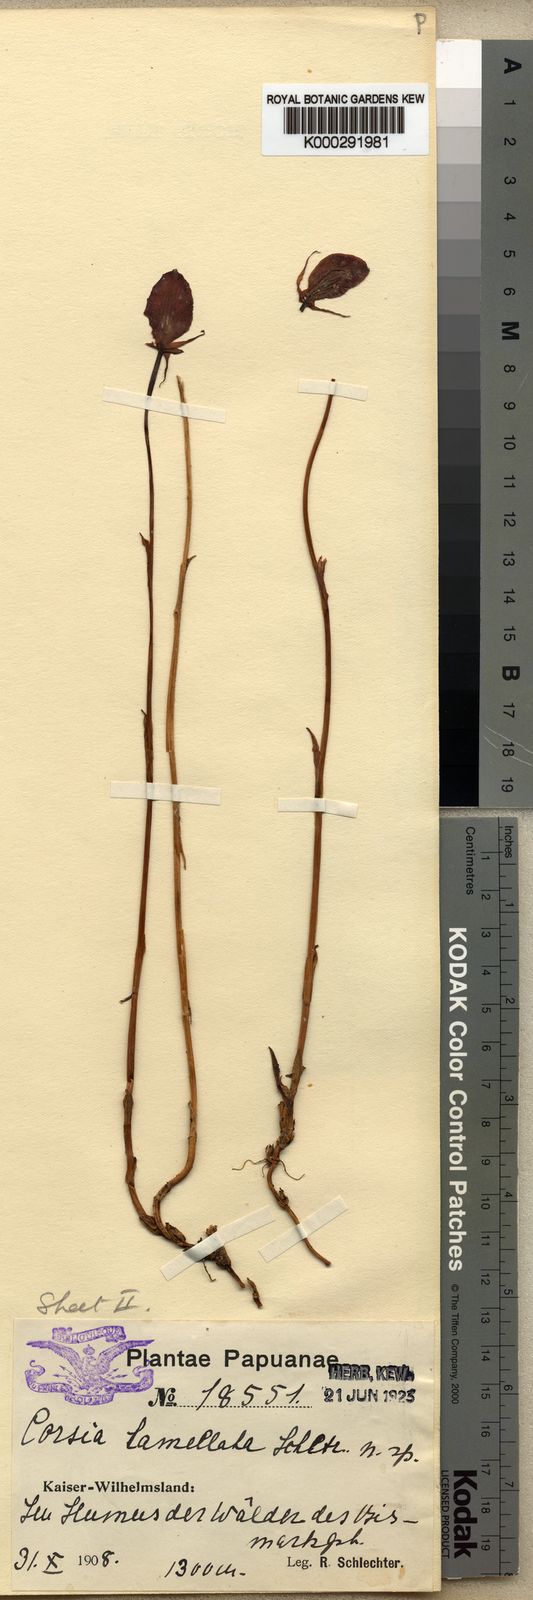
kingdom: Plantae
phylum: Tracheophyta
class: Liliopsida
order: Liliales
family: Corsiaceae
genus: Corsia
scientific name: Corsia lamellata
